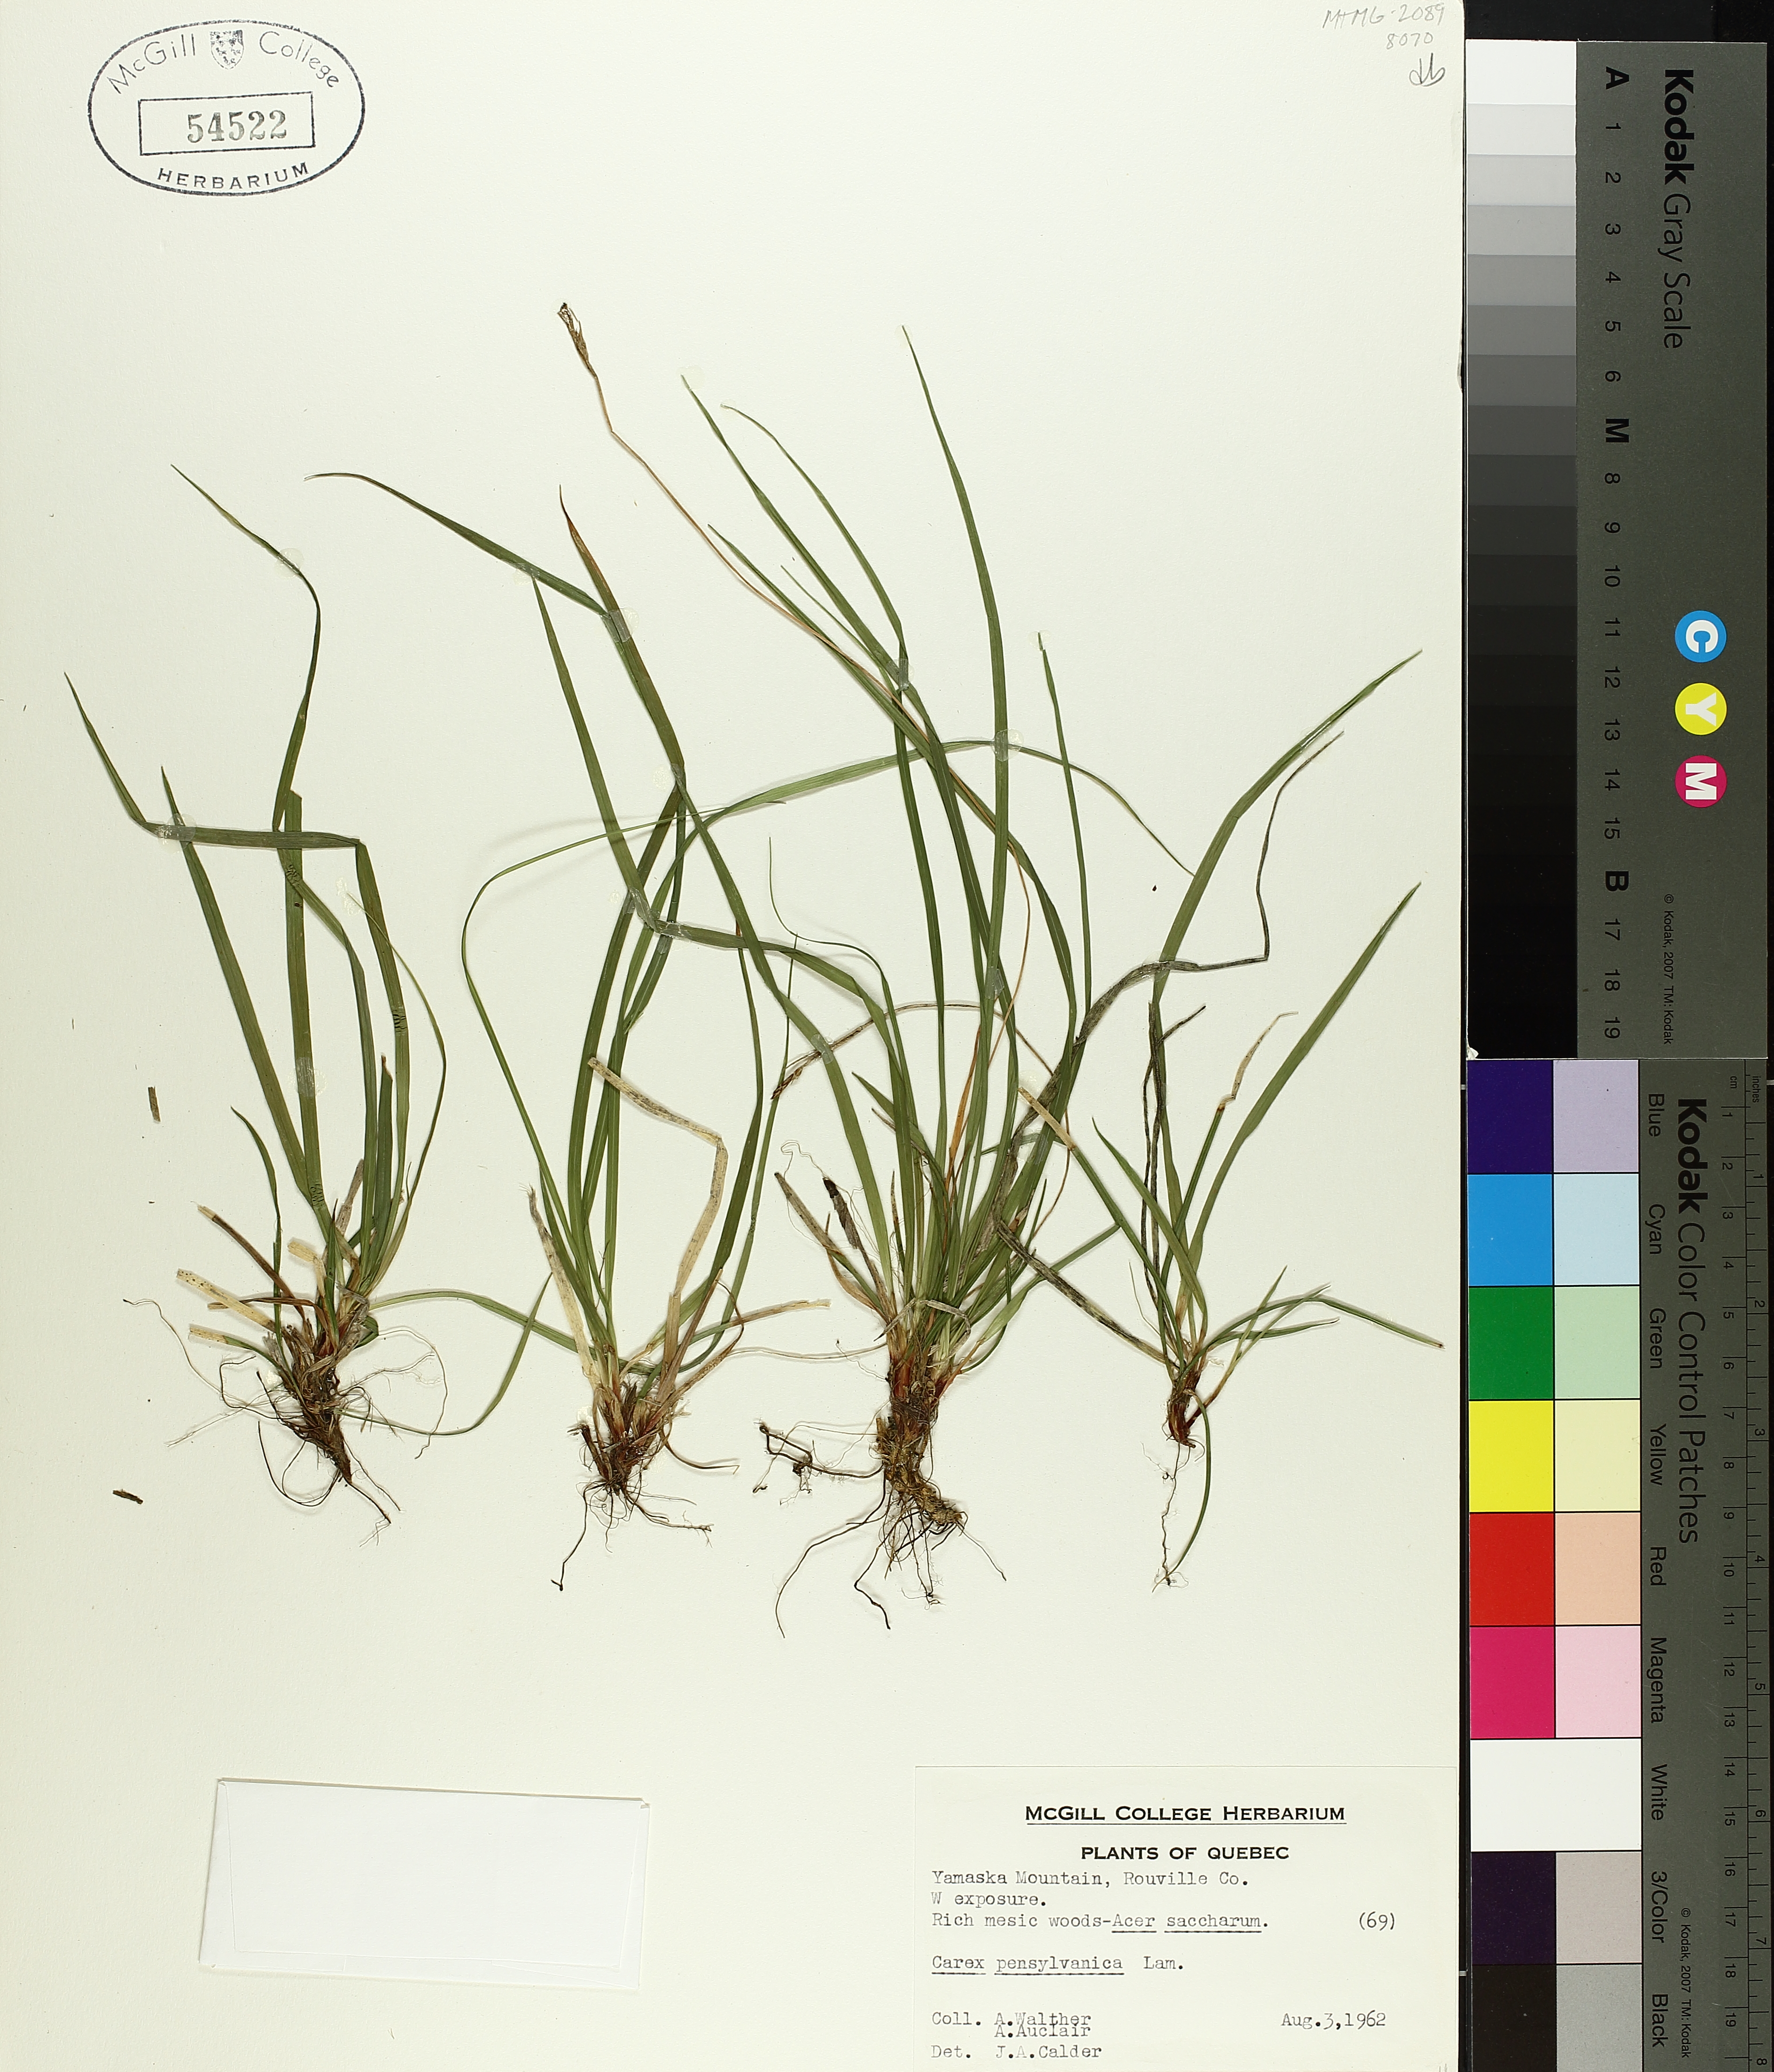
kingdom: Plantae
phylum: Tracheophyta
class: Liliopsida
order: Poales
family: Cyperaceae
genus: Carex
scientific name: Carex pensylvanica
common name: Common oak sedge
